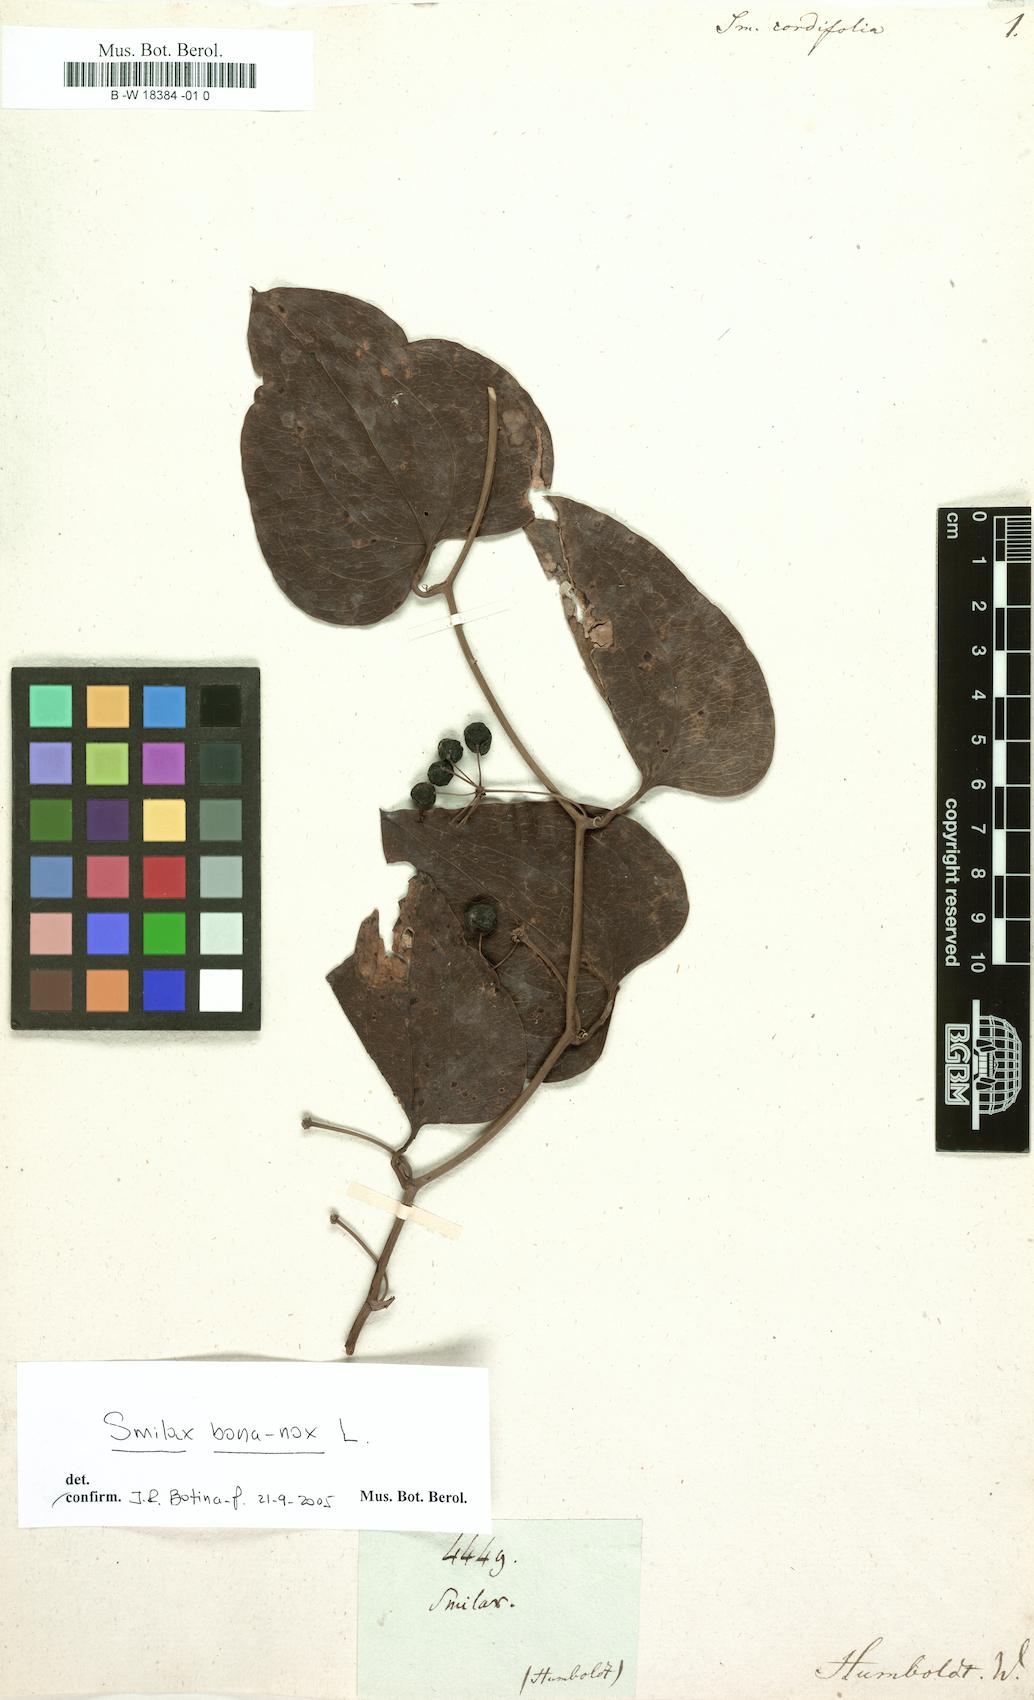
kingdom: Plantae
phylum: Tracheophyta
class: Liliopsida
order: Liliales
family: Smilacaceae
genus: Smilax
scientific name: Smilax cordifolia
